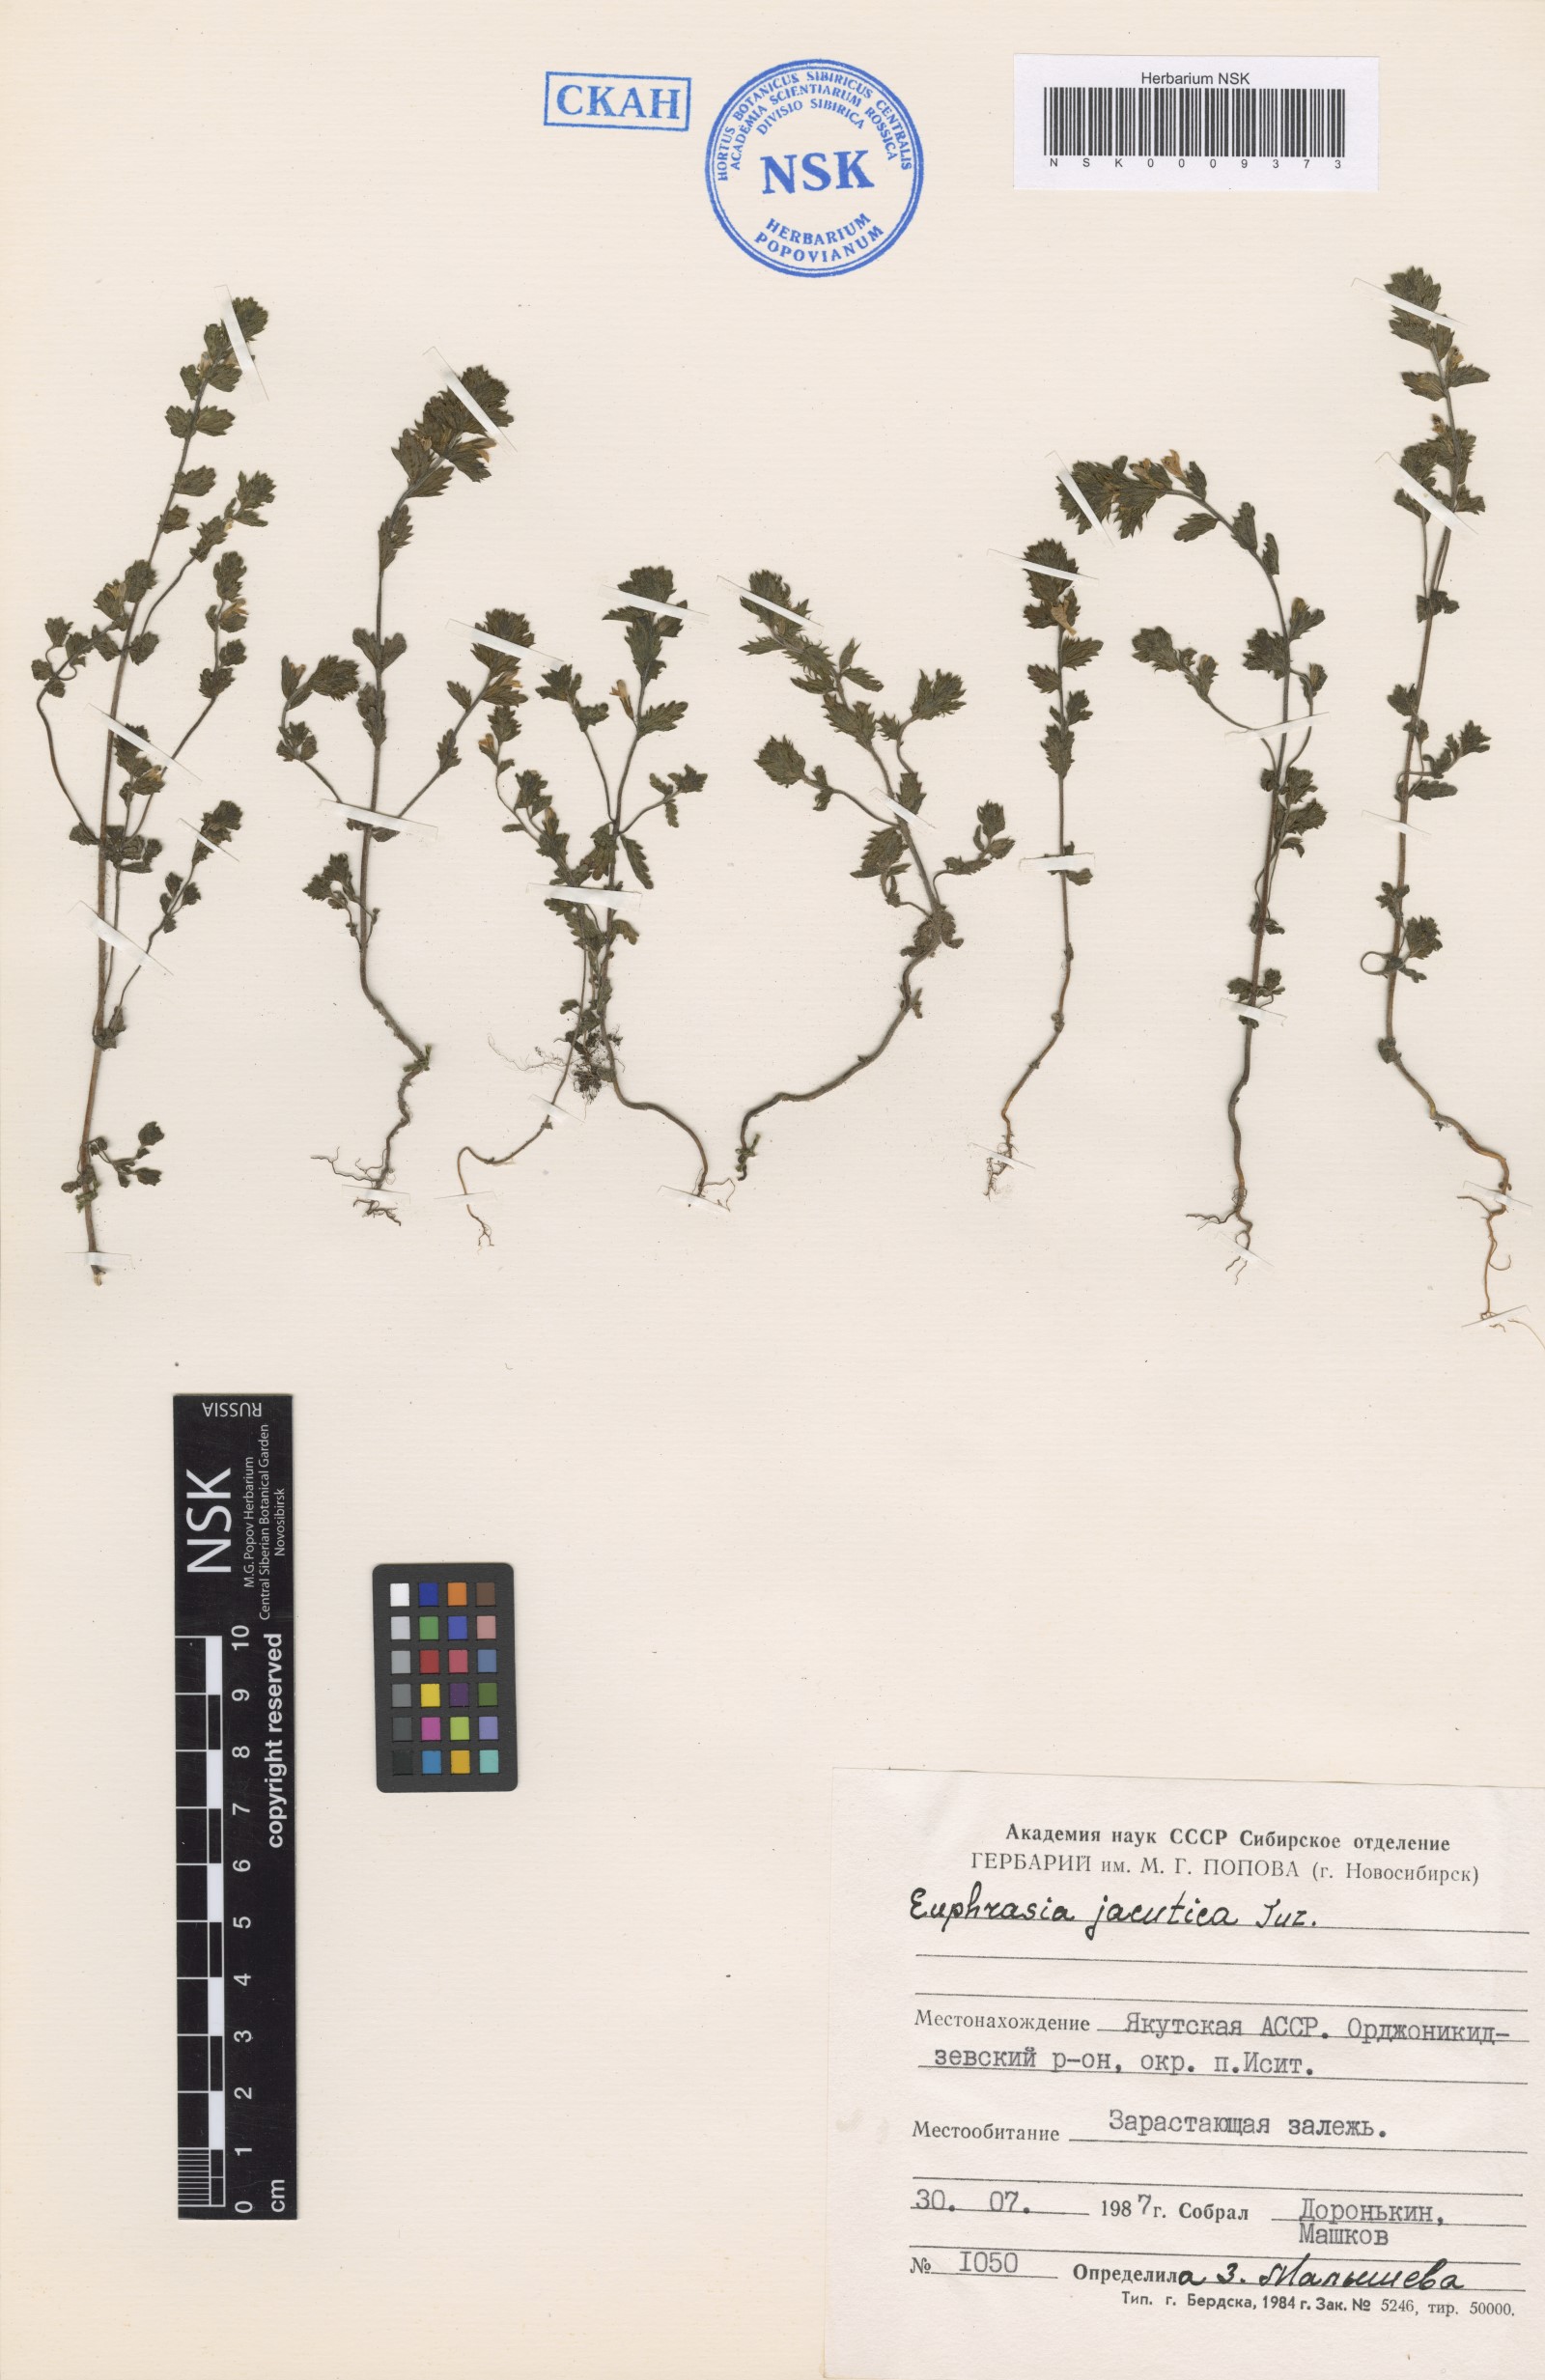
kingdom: Plantae
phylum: Tracheophyta
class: Magnoliopsida
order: Lamiales
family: Orobanchaceae
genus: Euphrasia
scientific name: Euphrasia jacutica
